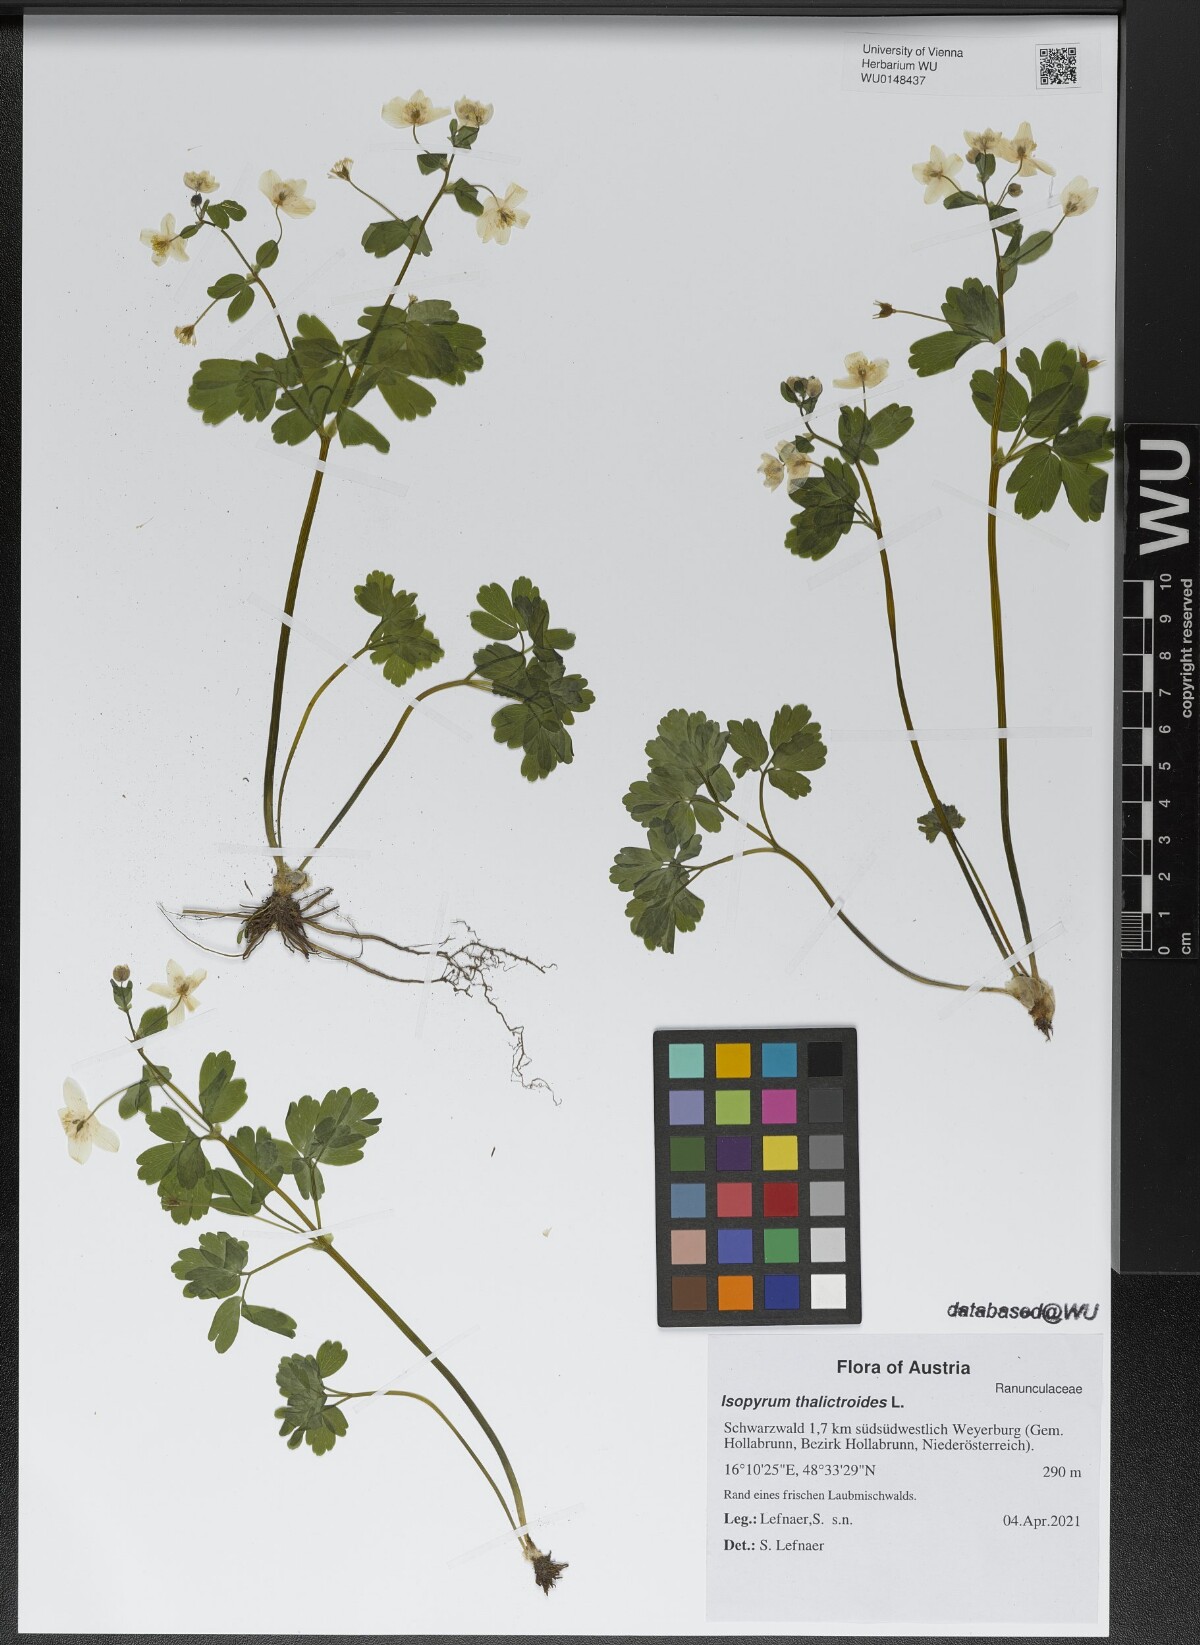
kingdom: Plantae
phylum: Tracheophyta
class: Magnoliopsida
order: Ranunculales
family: Ranunculaceae
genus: Isopyrum
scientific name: Isopyrum thalictroides
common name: Isopyrum
